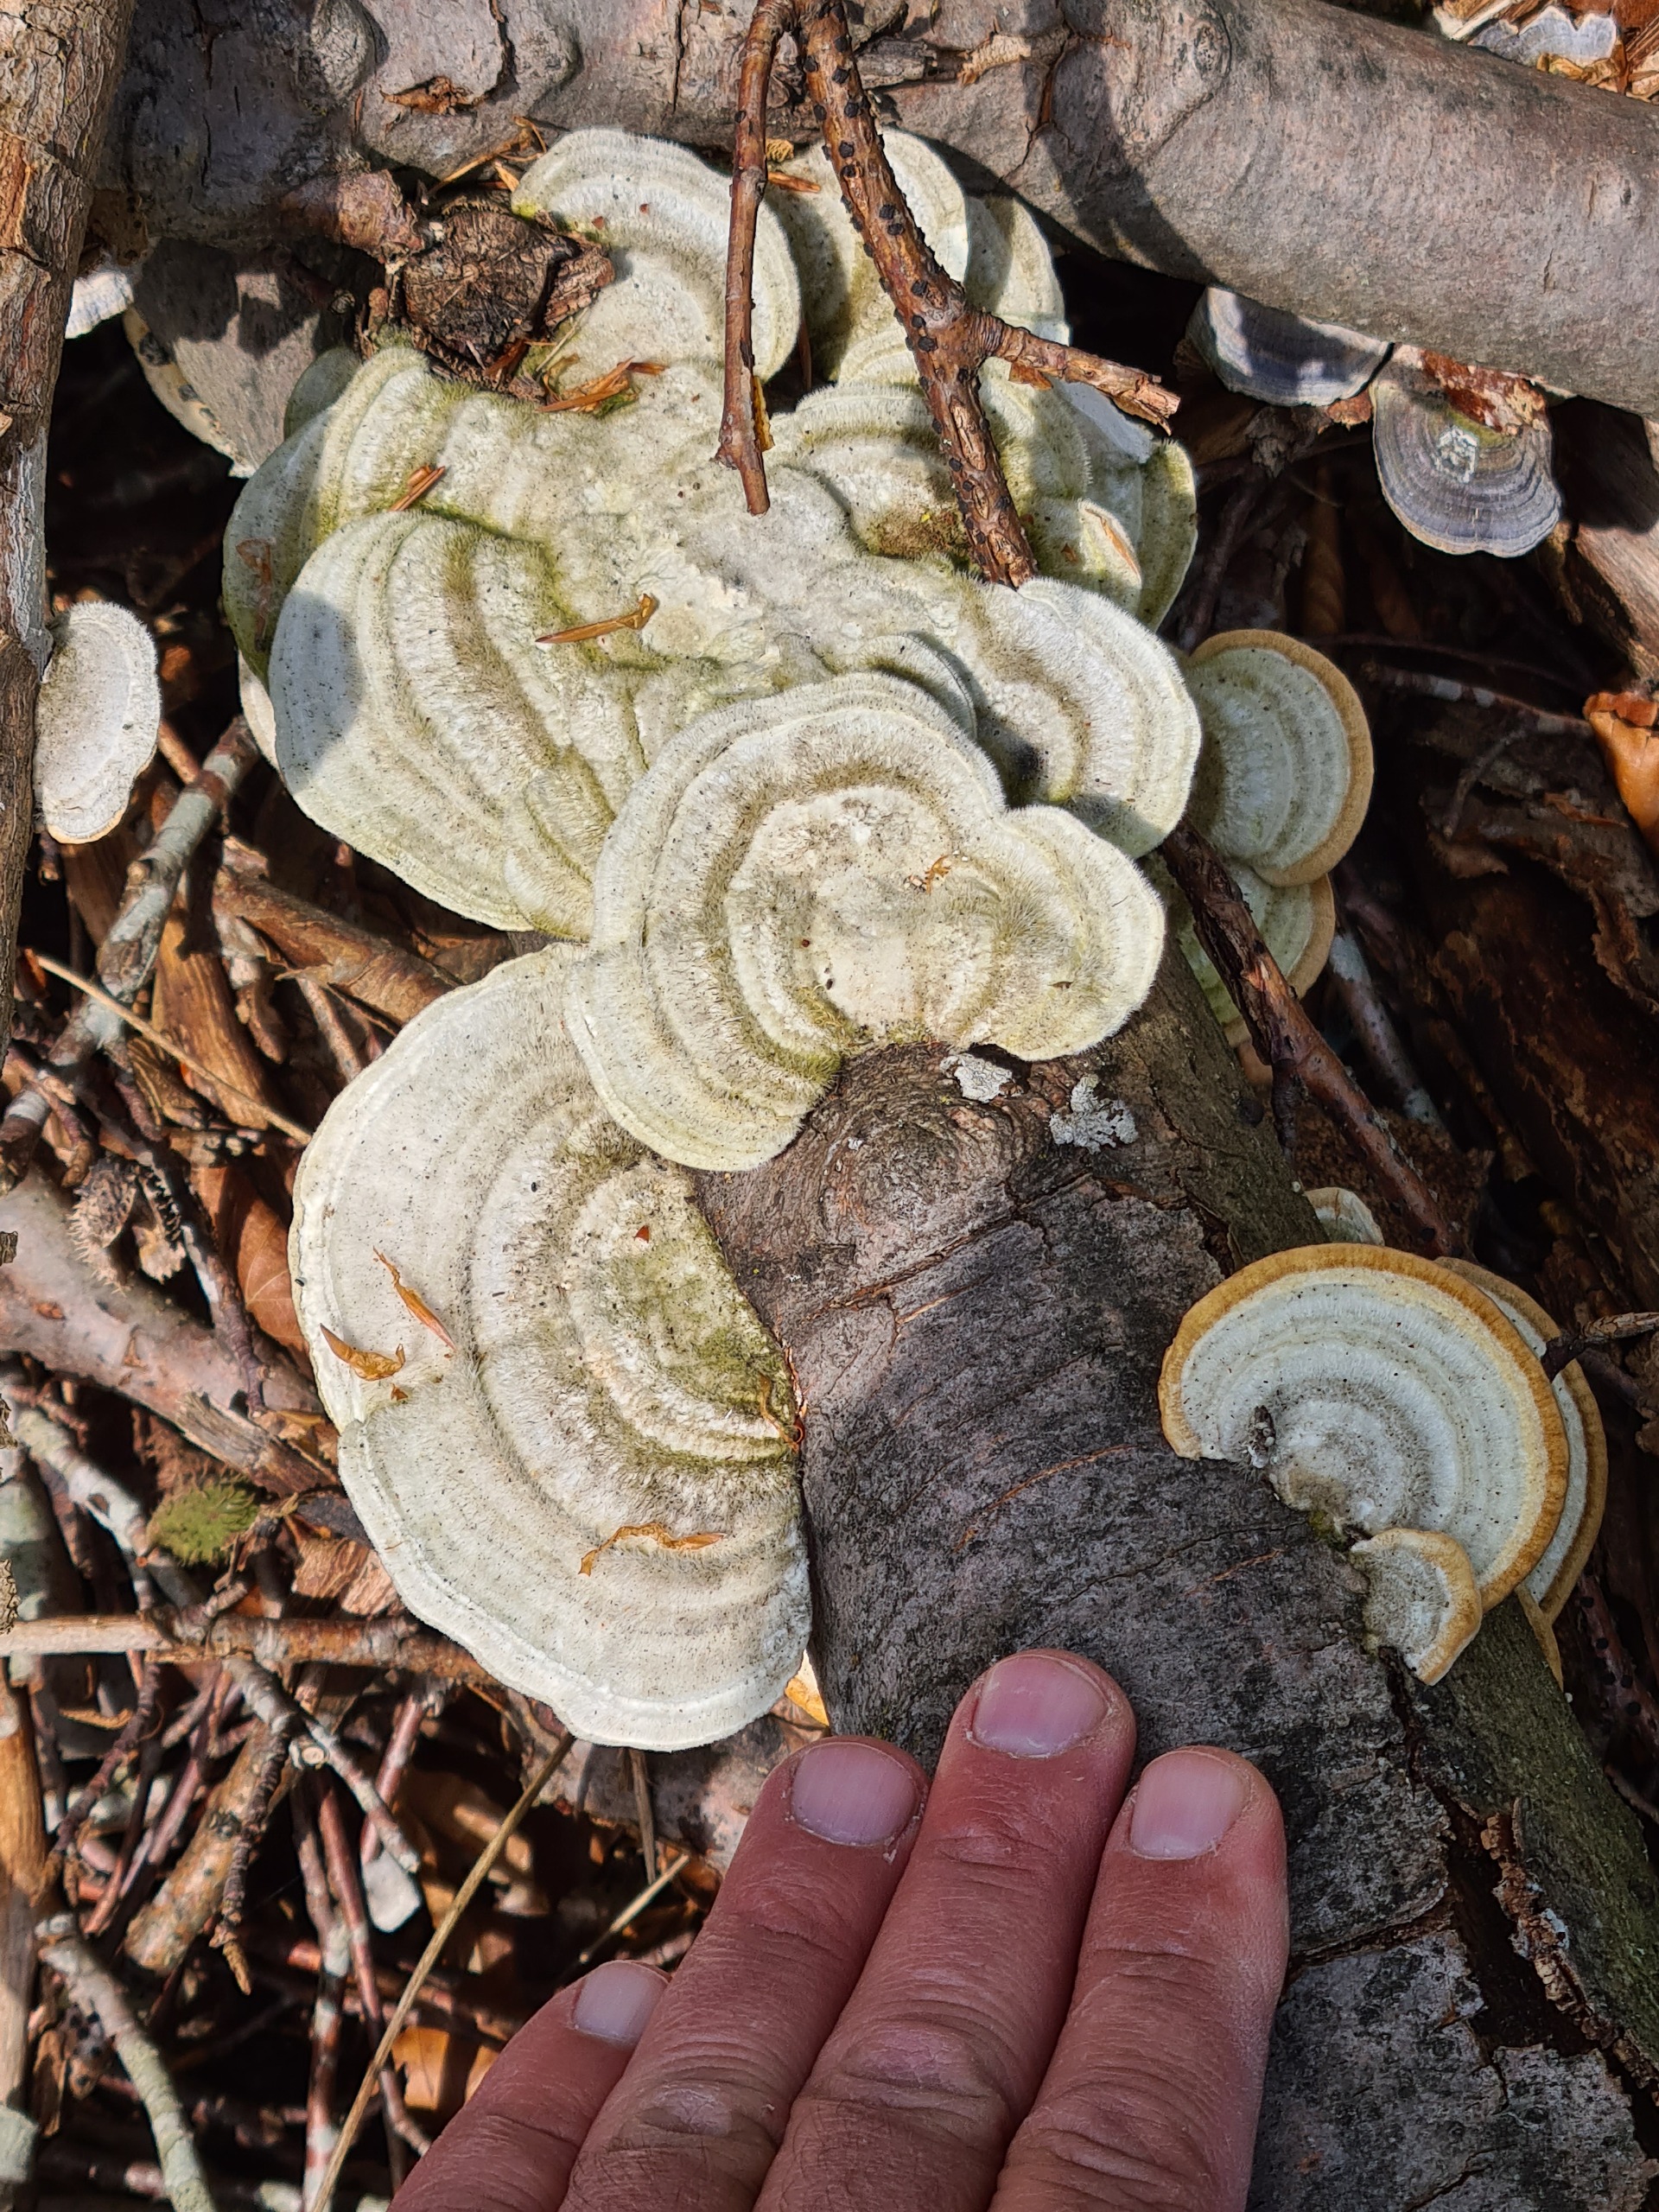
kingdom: Fungi
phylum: Basidiomycota
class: Agaricomycetes
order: Polyporales
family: Polyporaceae
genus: Trametes
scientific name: Trametes hirsuta
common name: Håret læderporesvamp
